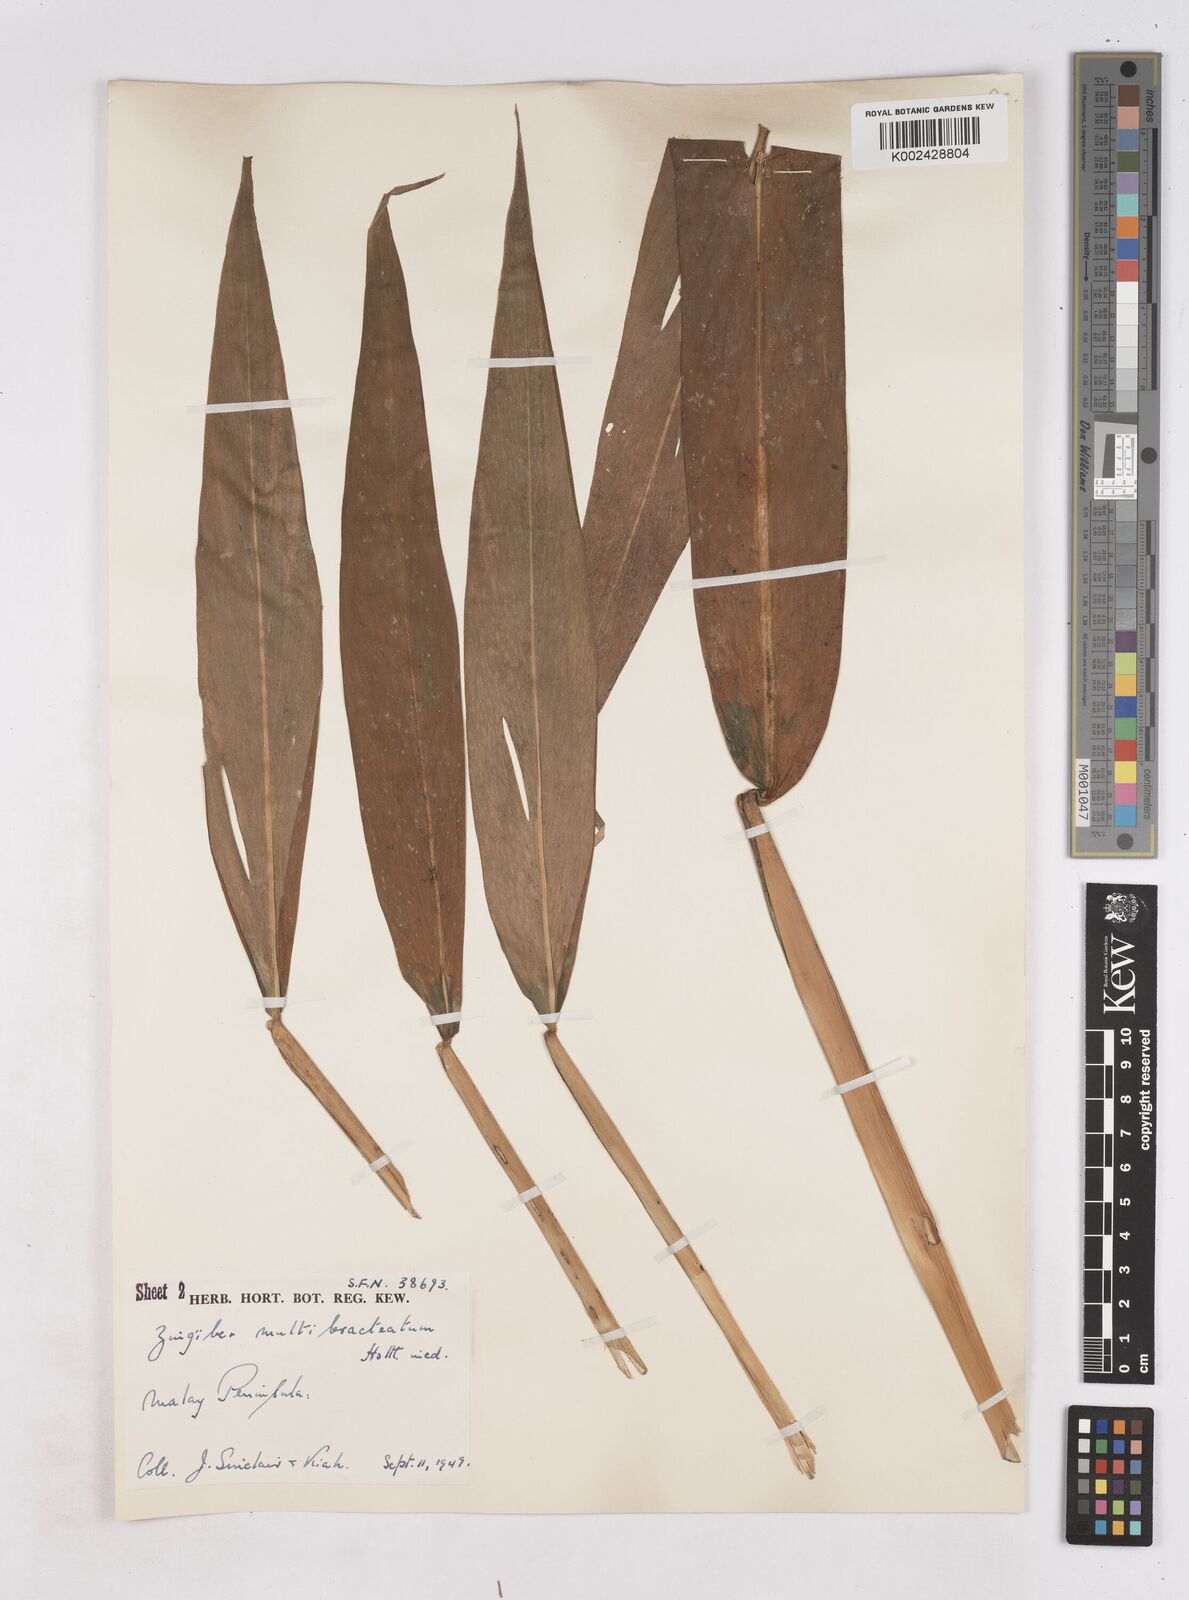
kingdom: Plantae
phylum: Tracheophyta
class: Liliopsida
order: Zingiberales
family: Zingiberaceae
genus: Zingiber
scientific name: Zingiber multibracteatum
